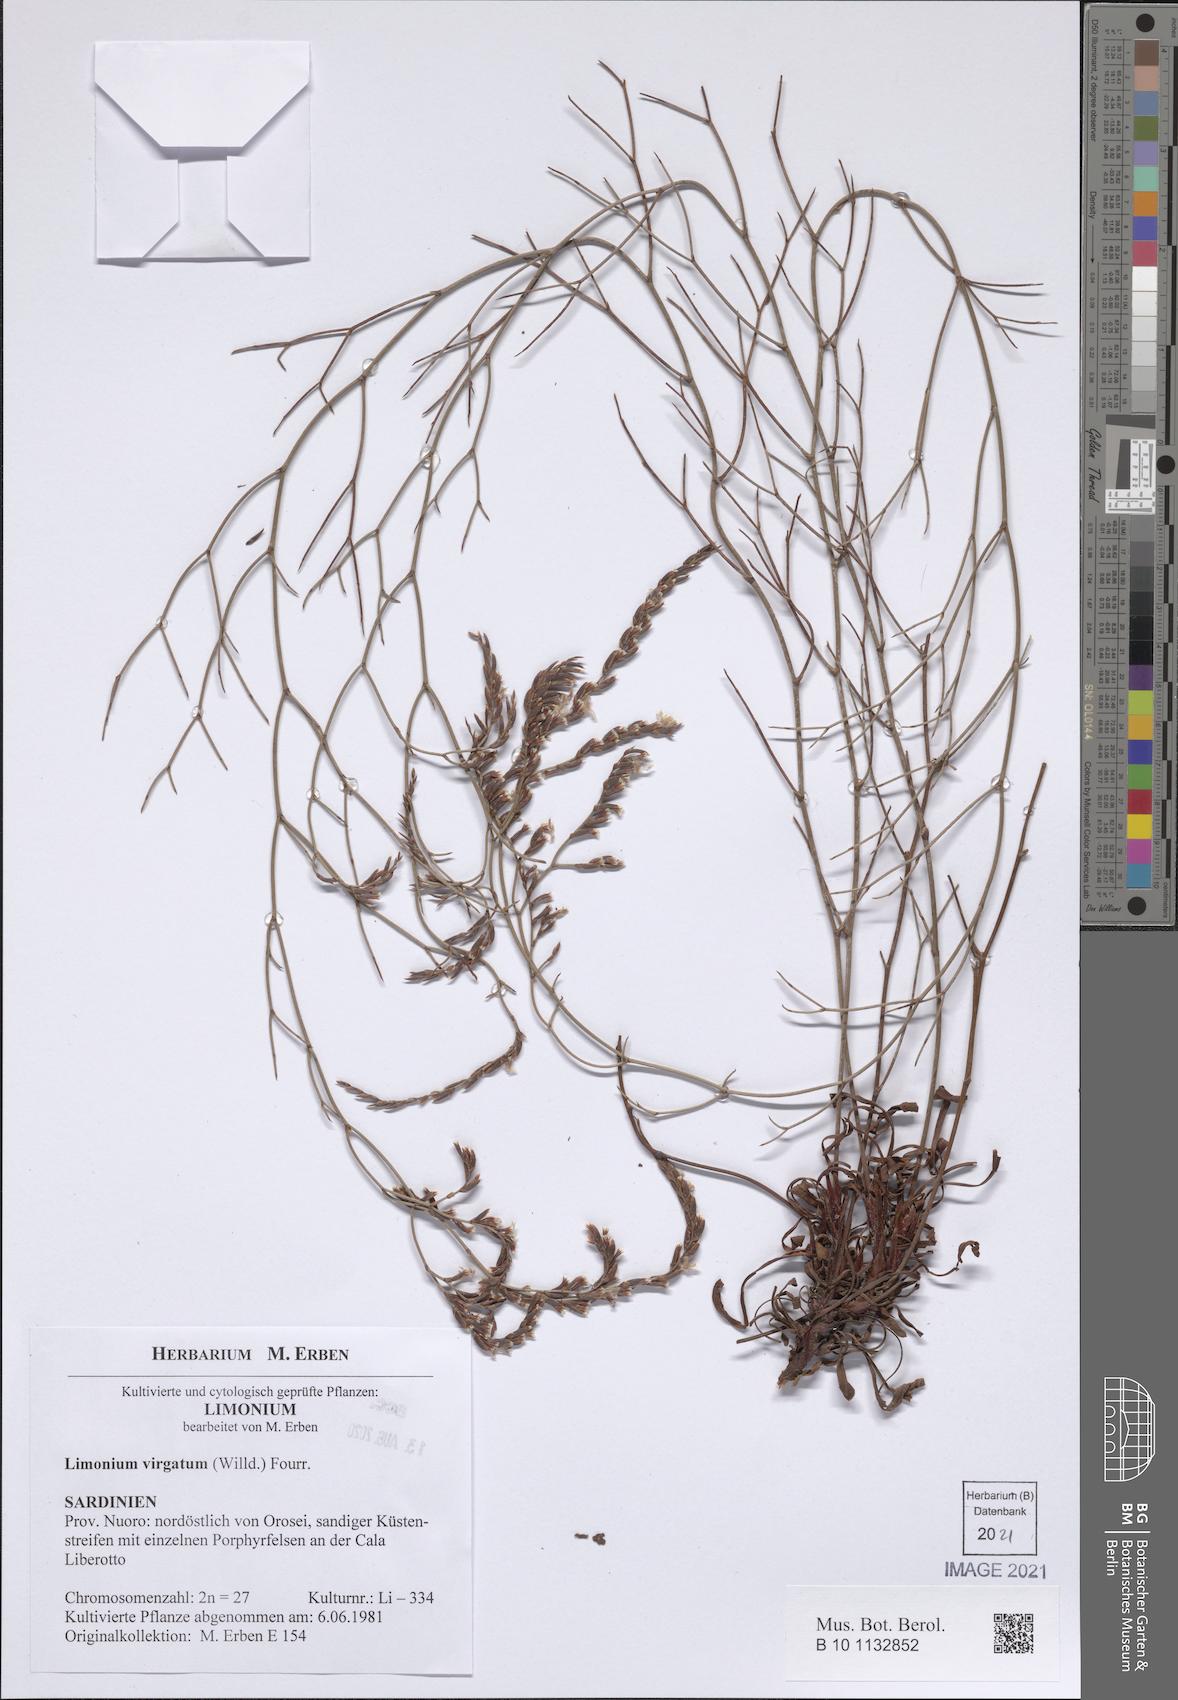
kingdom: Plantae
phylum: Tracheophyta
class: Magnoliopsida
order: Caryophyllales
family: Plumbaginaceae
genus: Limonium
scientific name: Limonium virgatum
